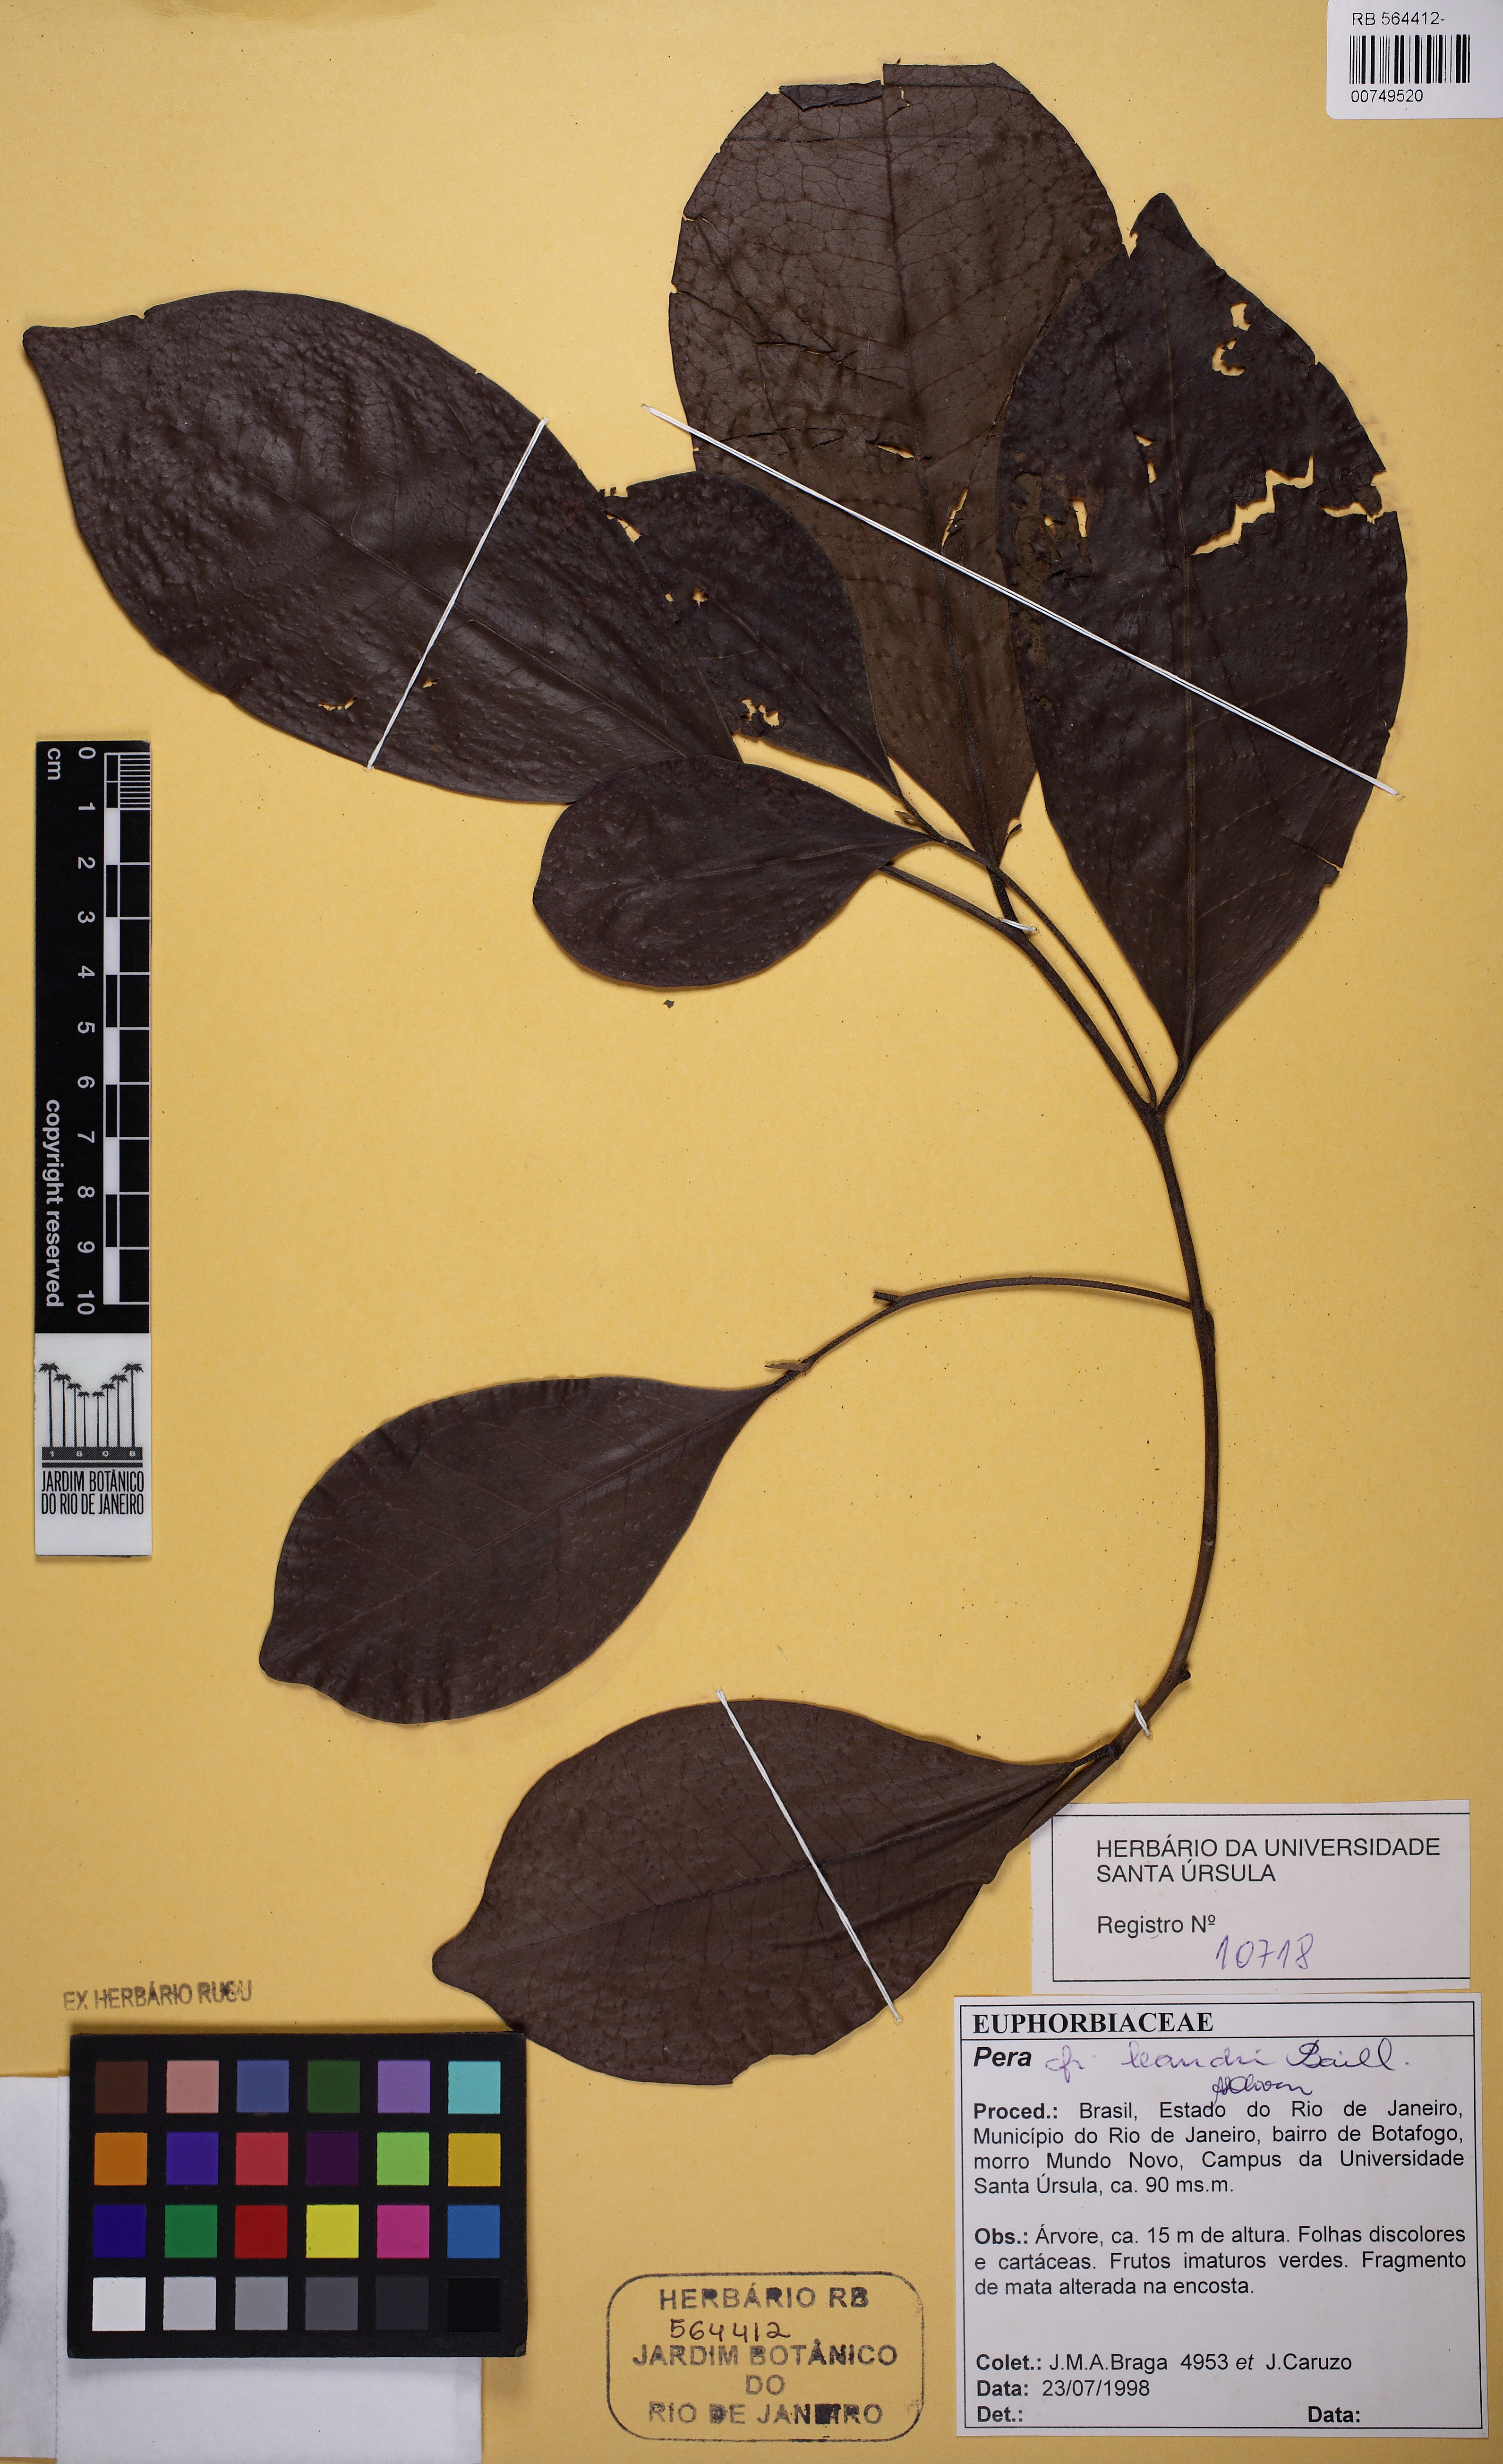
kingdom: Plantae
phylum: Tracheophyta
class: Magnoliopsida
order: Malpighiales
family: Peraceae
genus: Pera
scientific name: Pera
